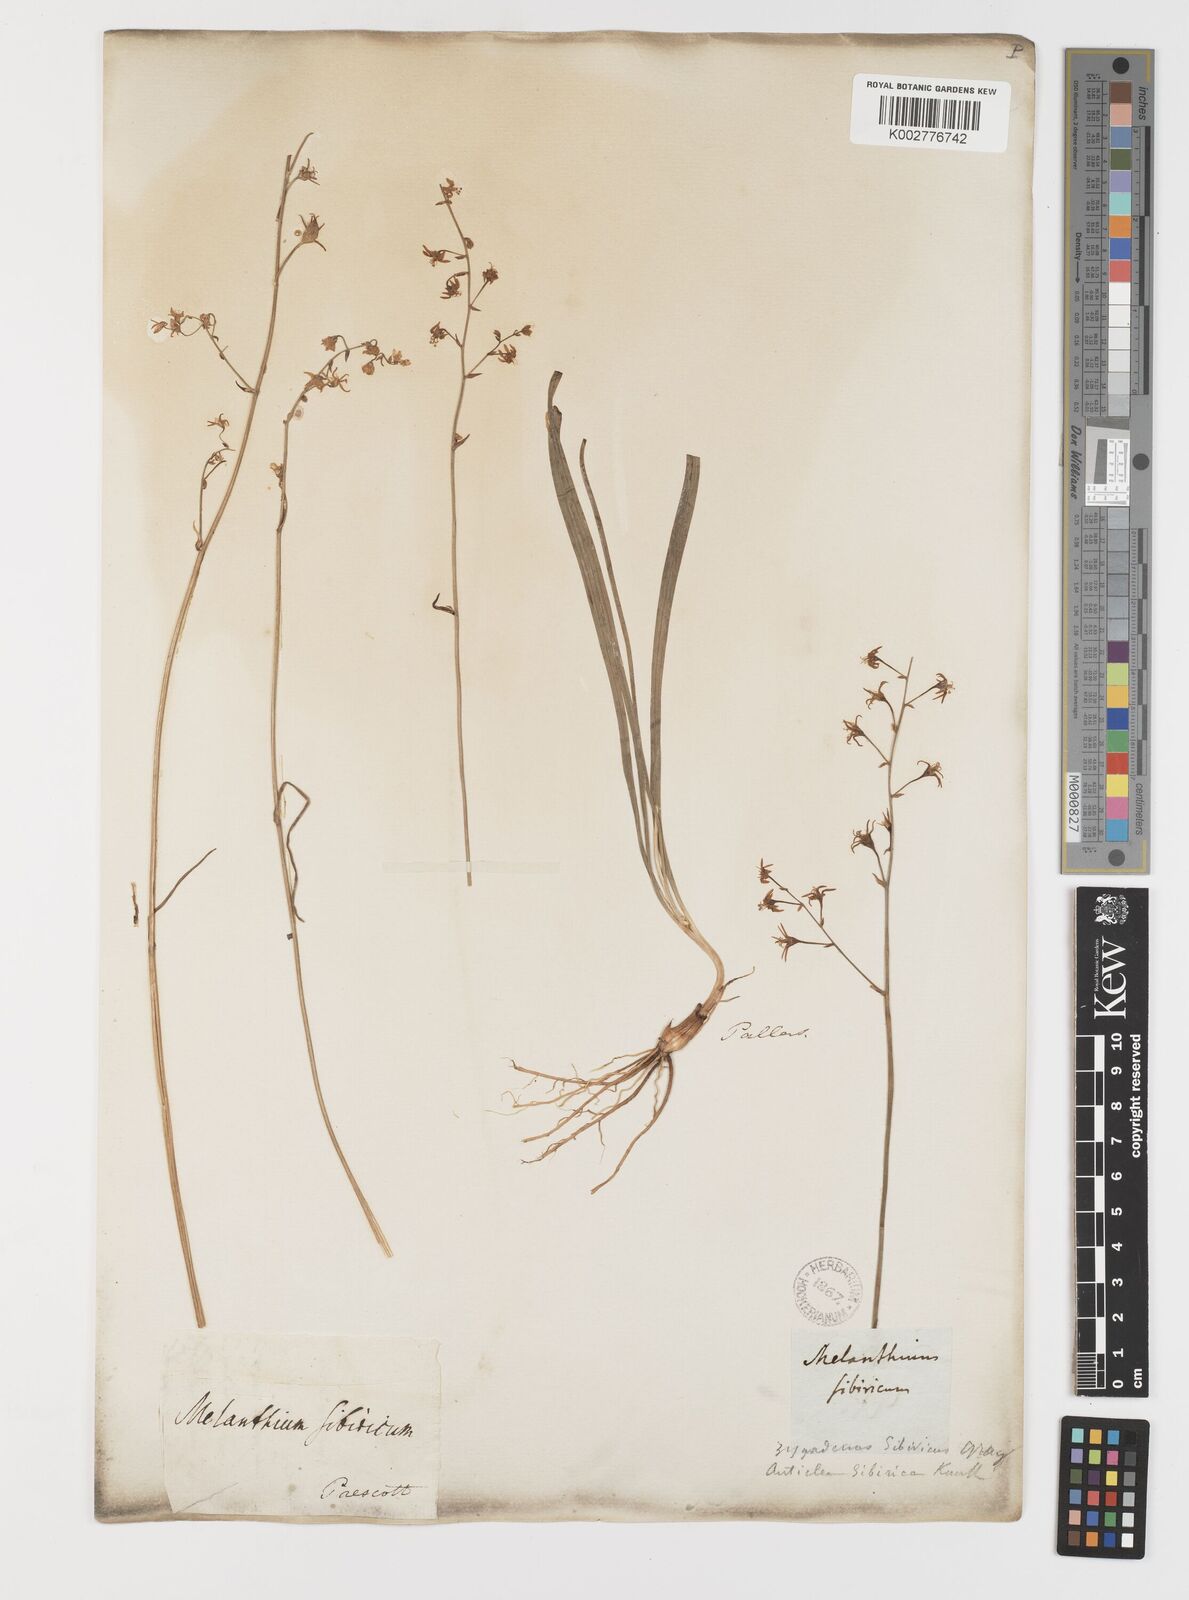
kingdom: Plantae
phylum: Tracheophyta
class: Liliopsida
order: Liliales
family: Melanthiaceae
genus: Anticlea
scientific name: Anticlea sibirica
